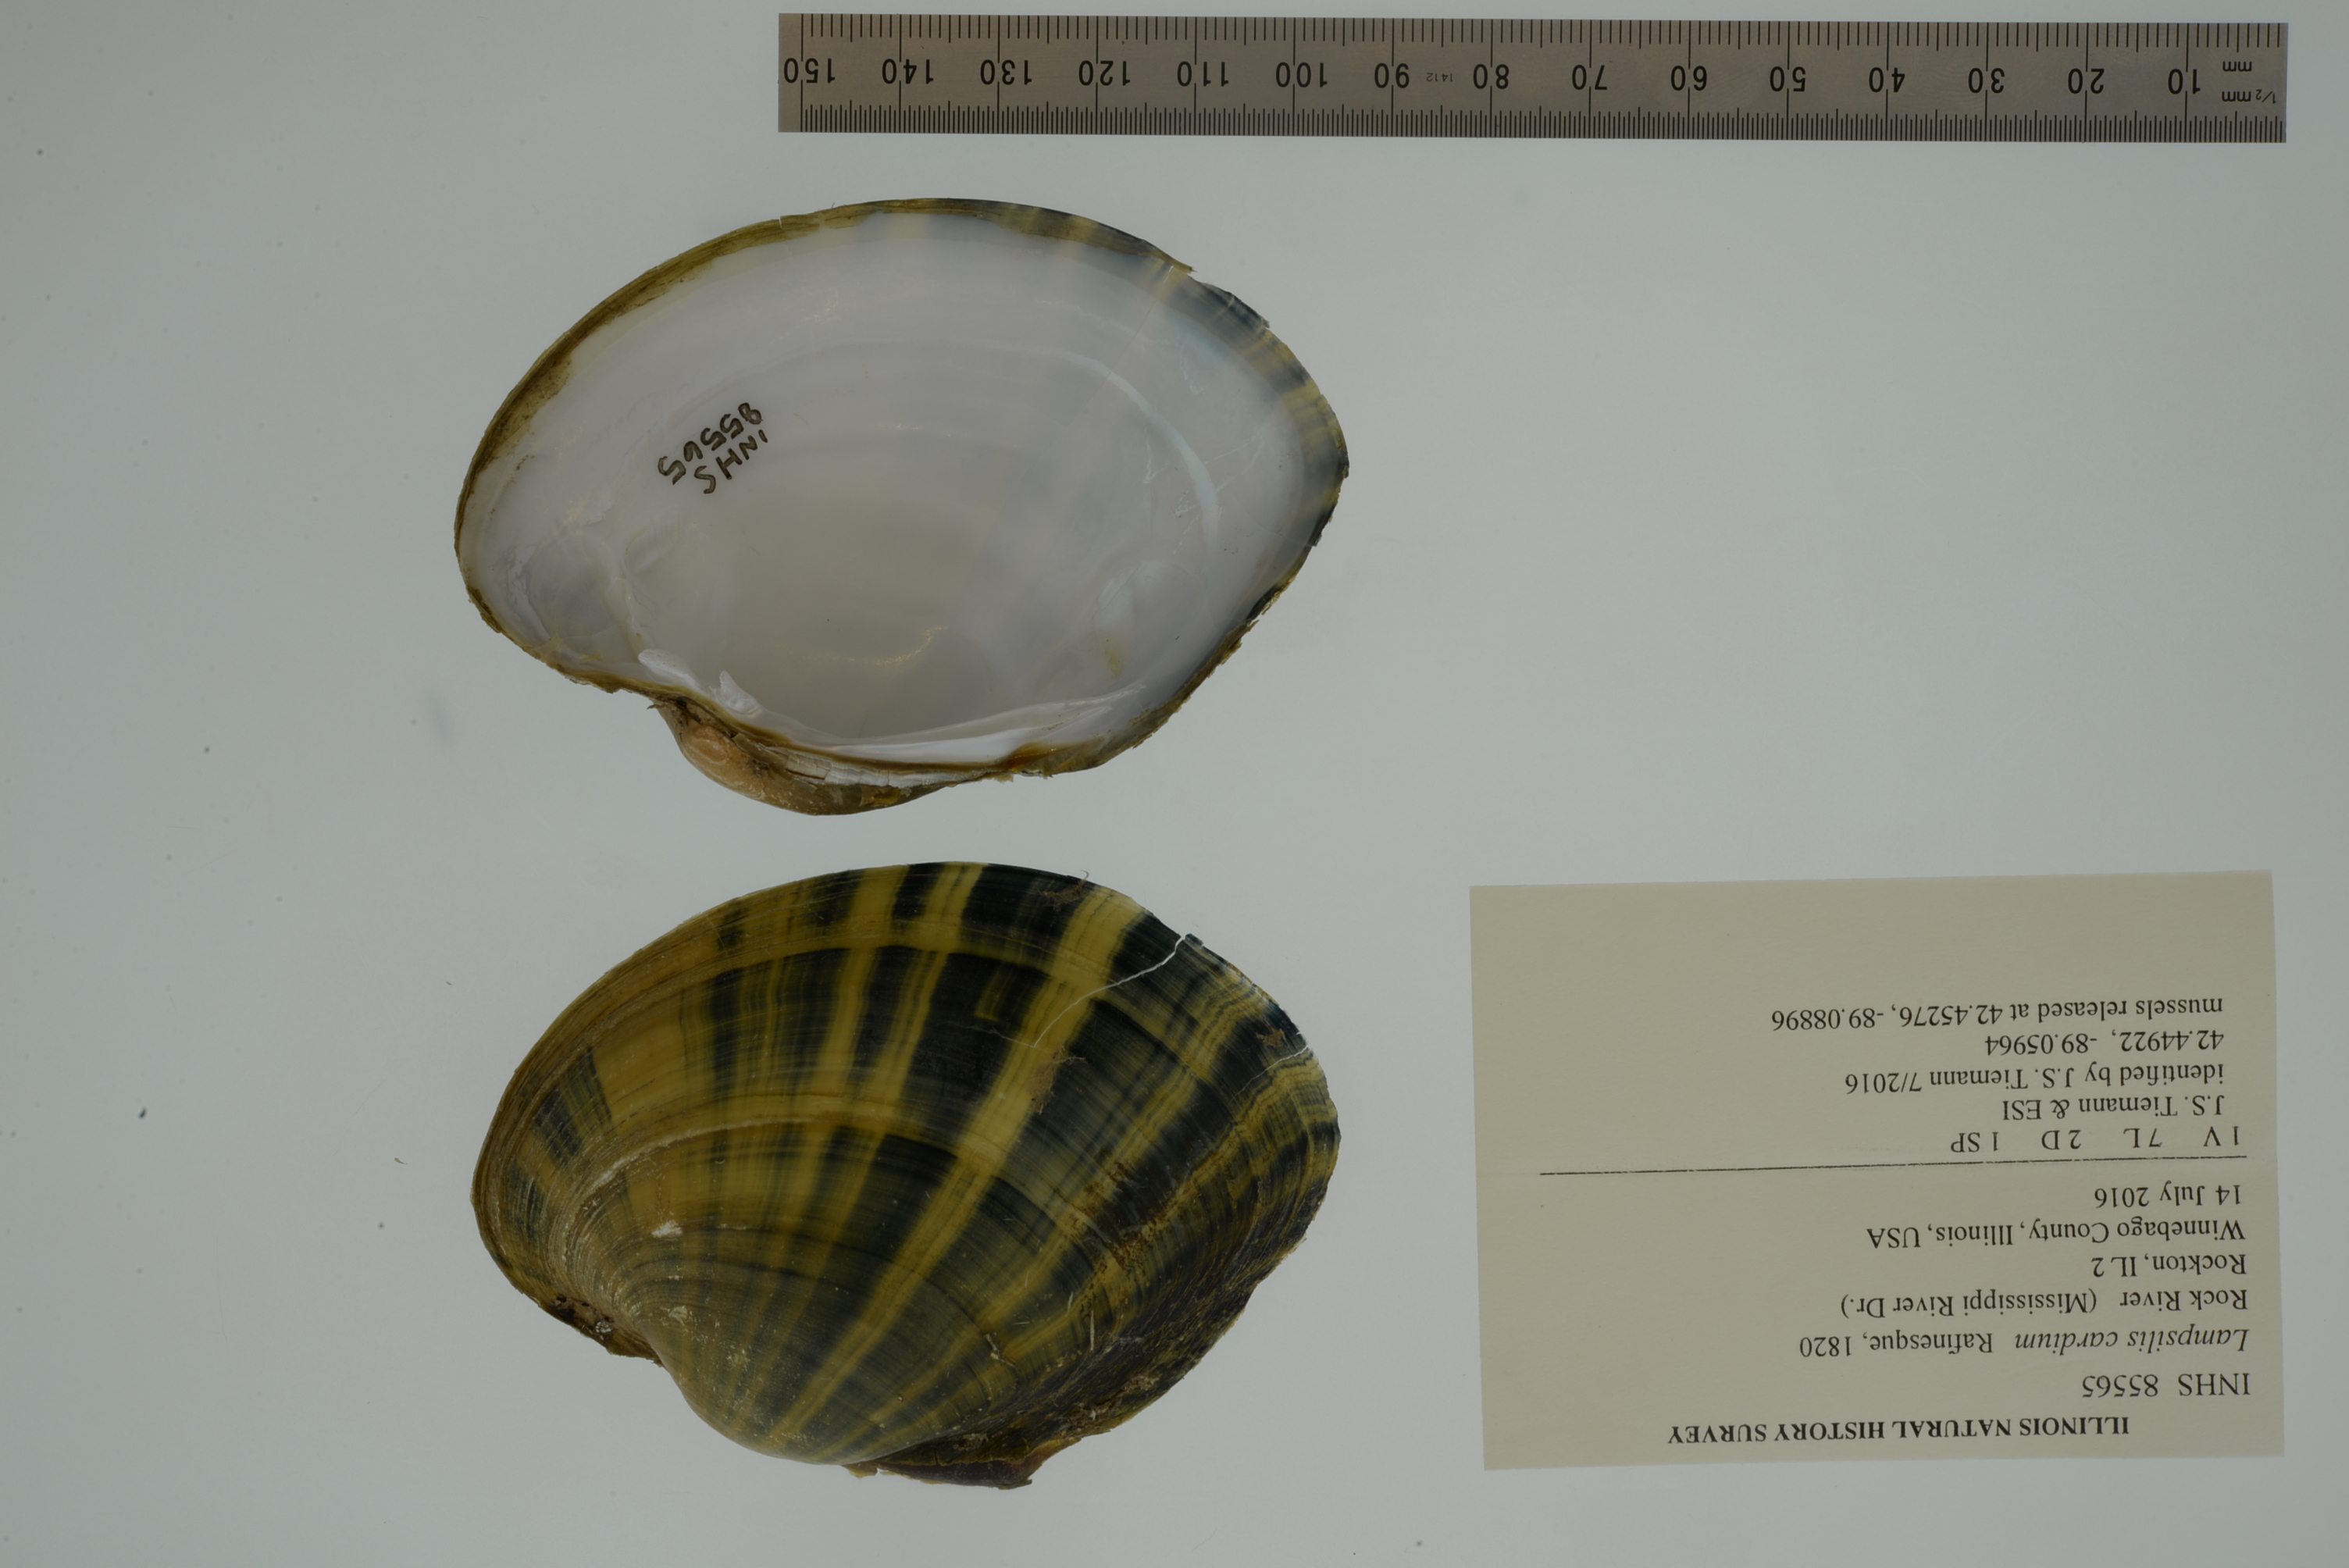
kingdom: Animalia
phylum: Mollusca
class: Bivalvia
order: Unionida
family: Unionidae
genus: Lampsilis
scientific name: Lampsilis cardium
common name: Plain pocketbook
